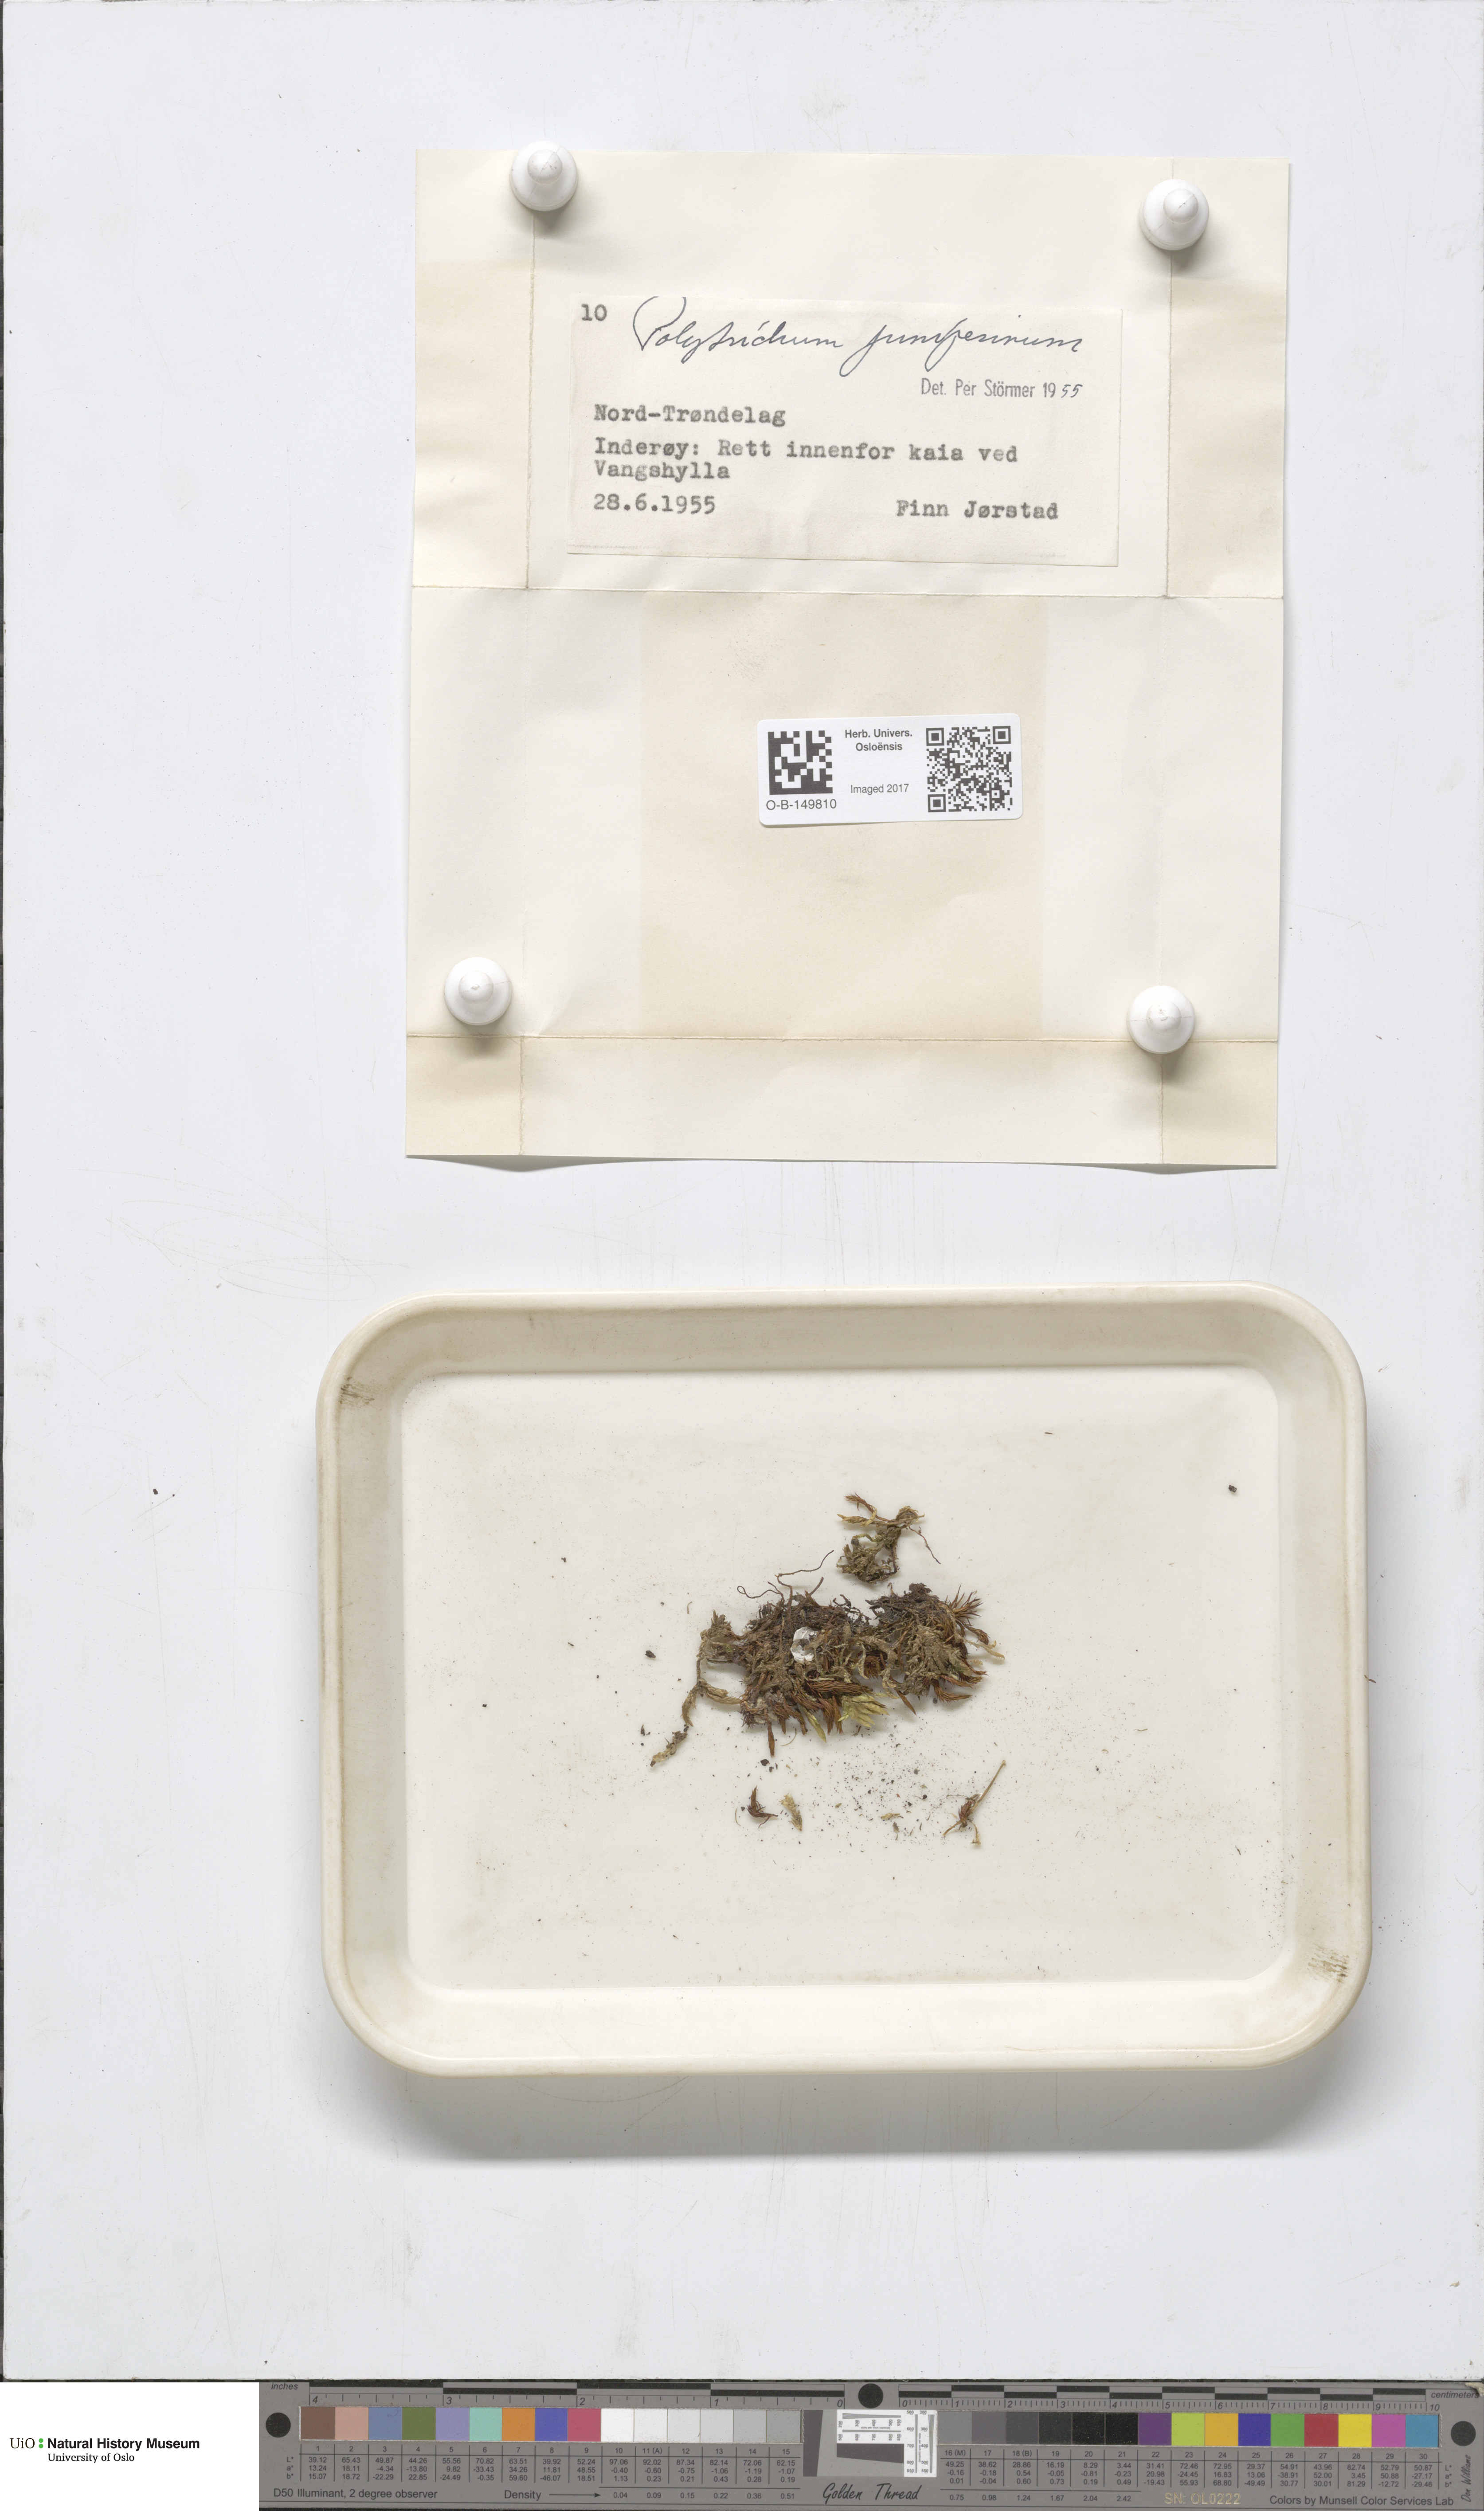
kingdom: Plantae
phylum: Bryophyta
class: Polytrichopsida
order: Polytrichales
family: Polytrichaceae
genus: Polytrichum
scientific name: Polytrichum juniperinum
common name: Juniper haircap moss
